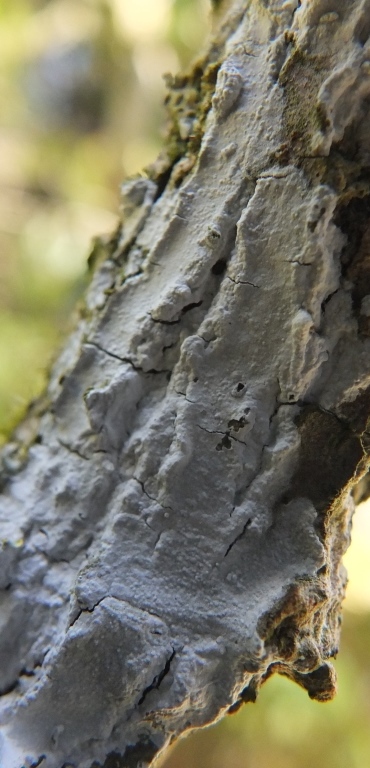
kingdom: Fungi
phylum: Basidiomycota
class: Agaricomycetes
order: Corticiales
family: Corticiaceae
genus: Lyomyces
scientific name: Lyomyces sambuci
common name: almindelig hyldehinde
